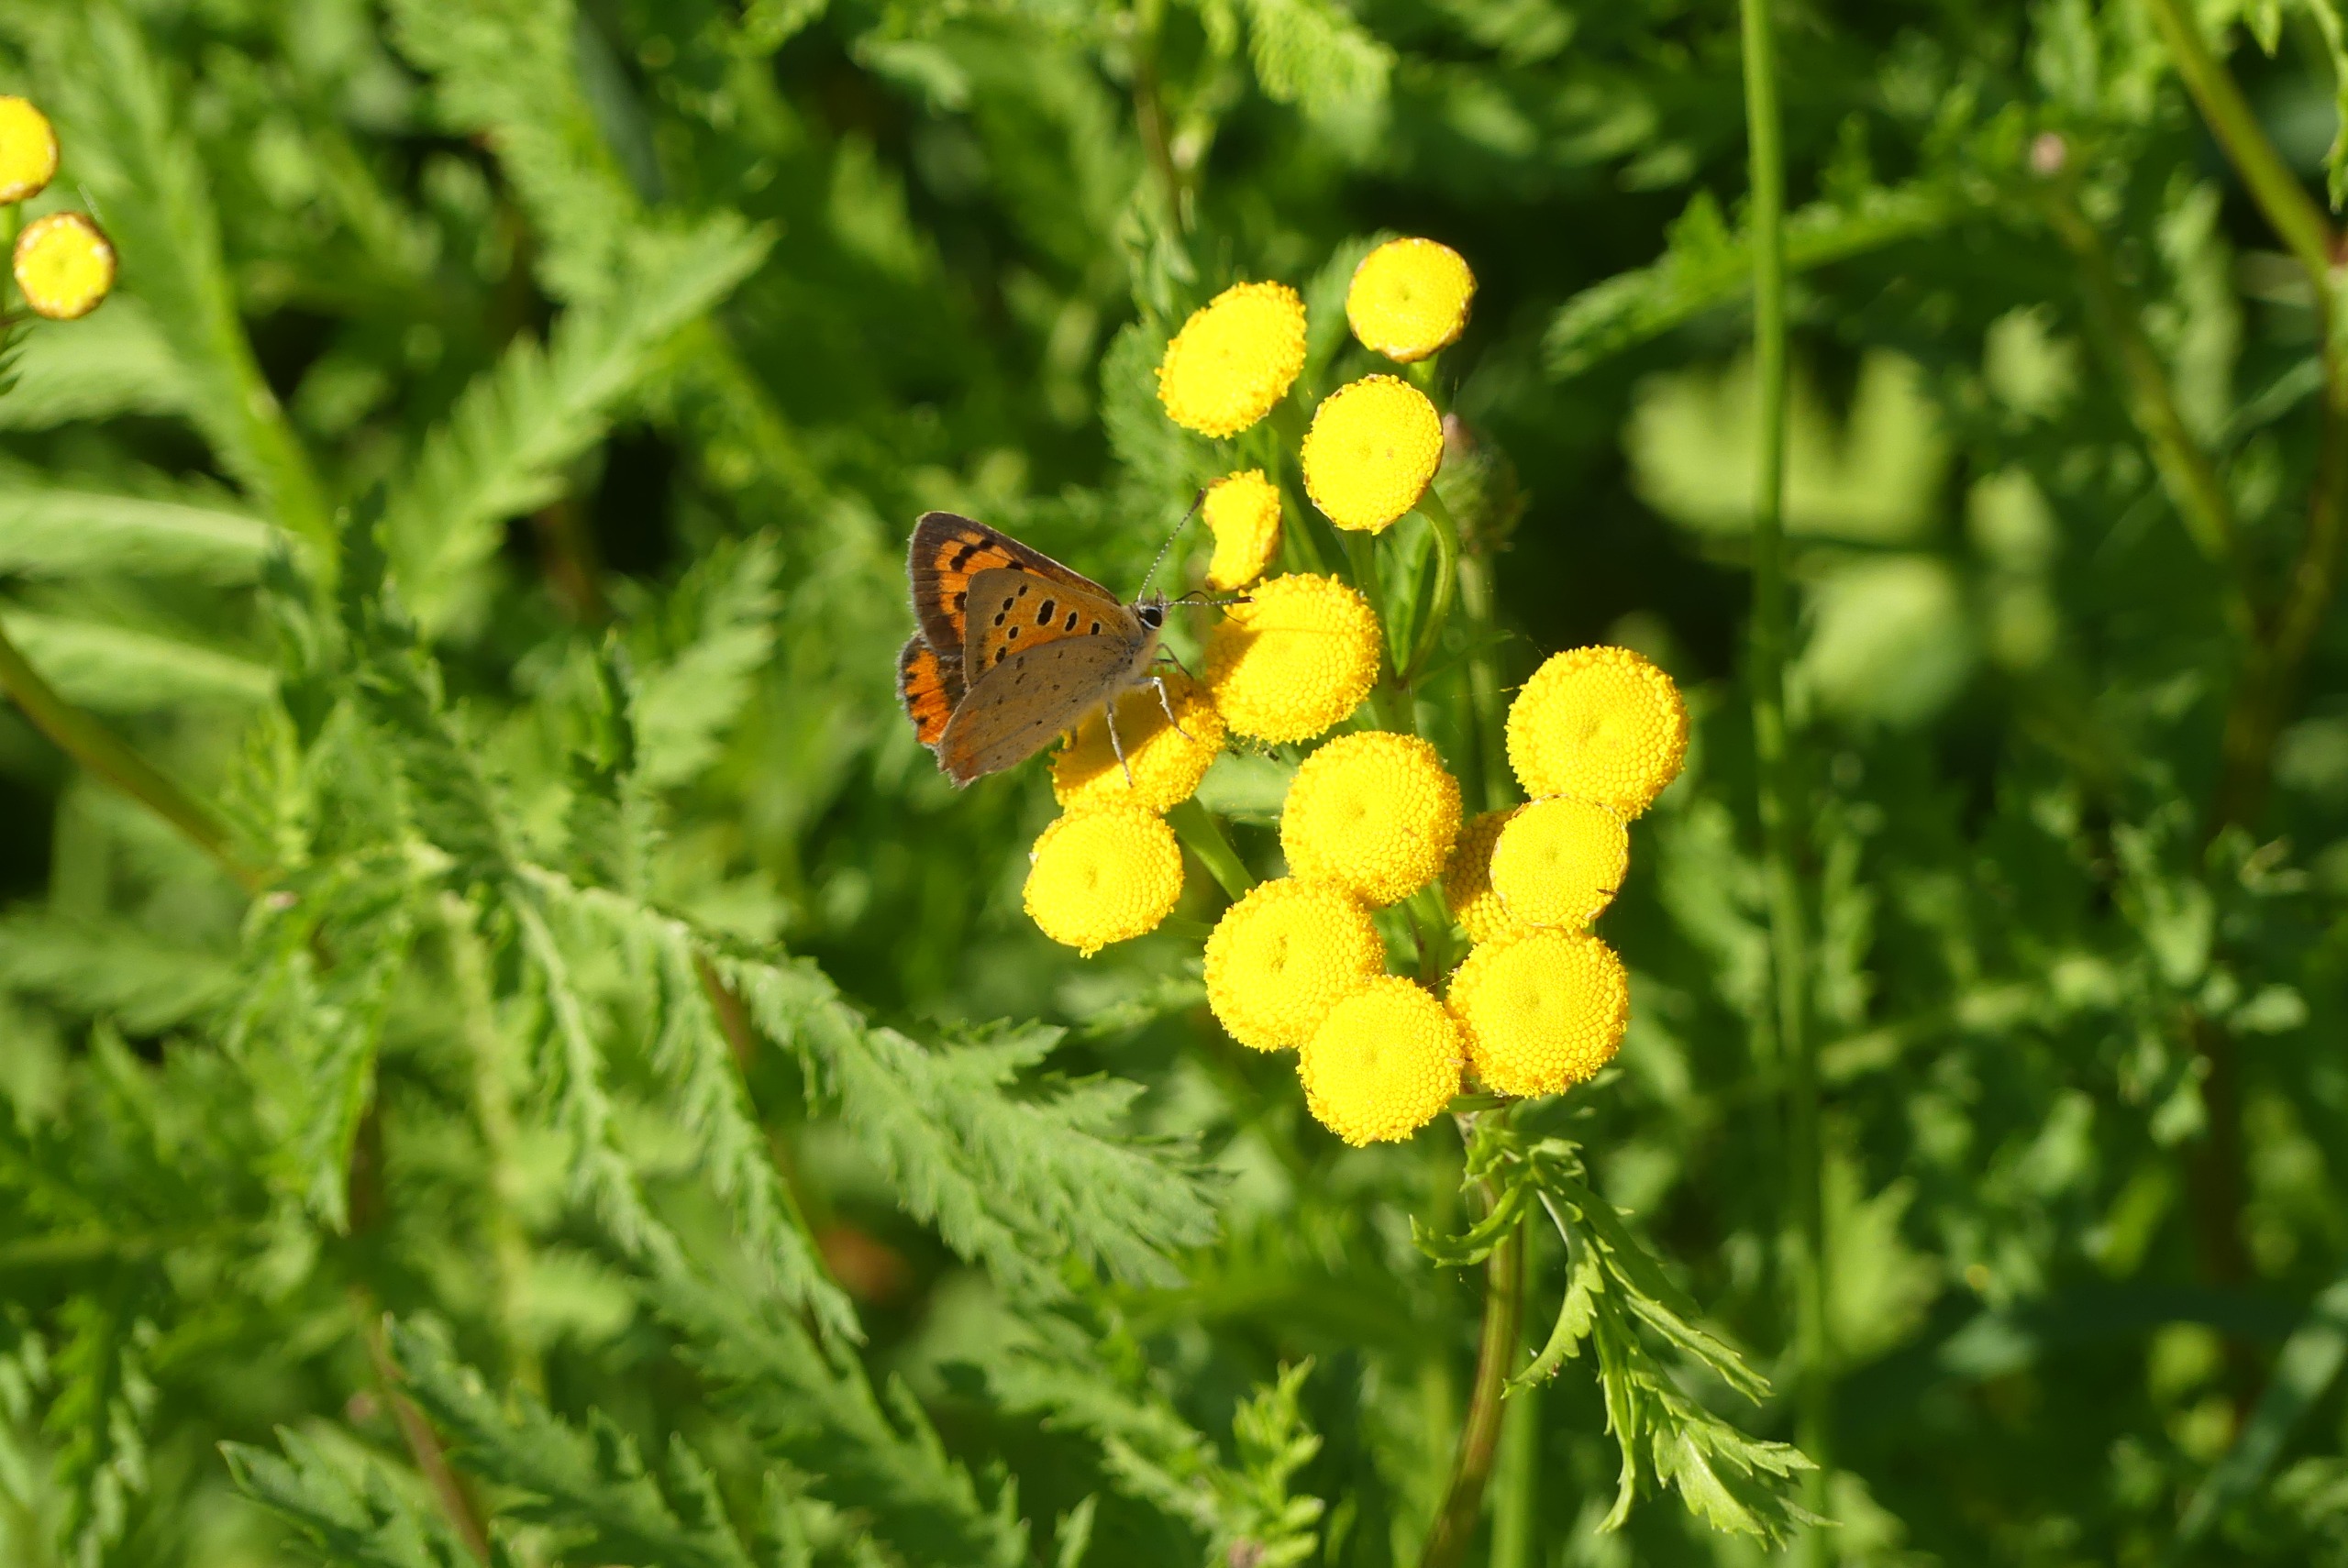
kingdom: Animalia
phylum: Arthropoda
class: Insecta
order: Lepidoptera
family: Lycaenidae
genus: Lycaena
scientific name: Lycaena phlaeas
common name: Lille ildfugl
